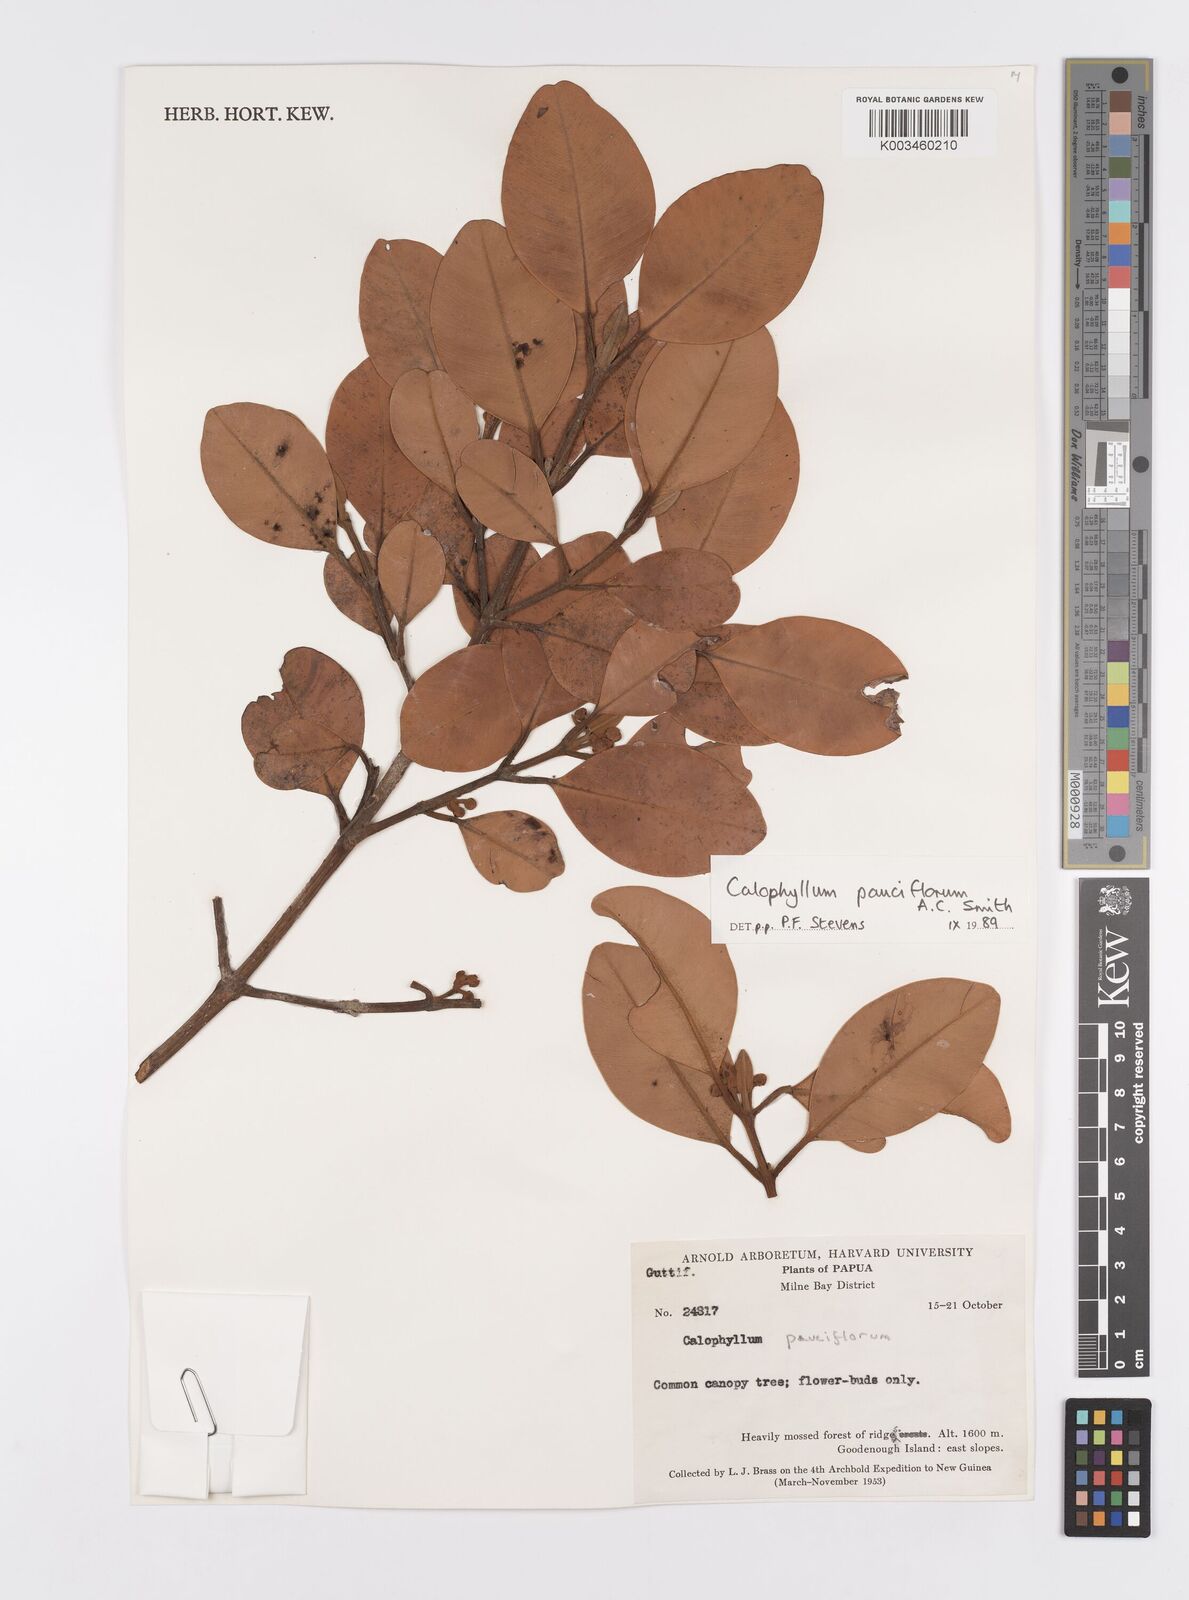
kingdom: Plantae
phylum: Tracheophyta
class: Magnoliopsida
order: Malpighiales
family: Calophyllaceae
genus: Calophyllum
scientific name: Calophyllum parviflorum
